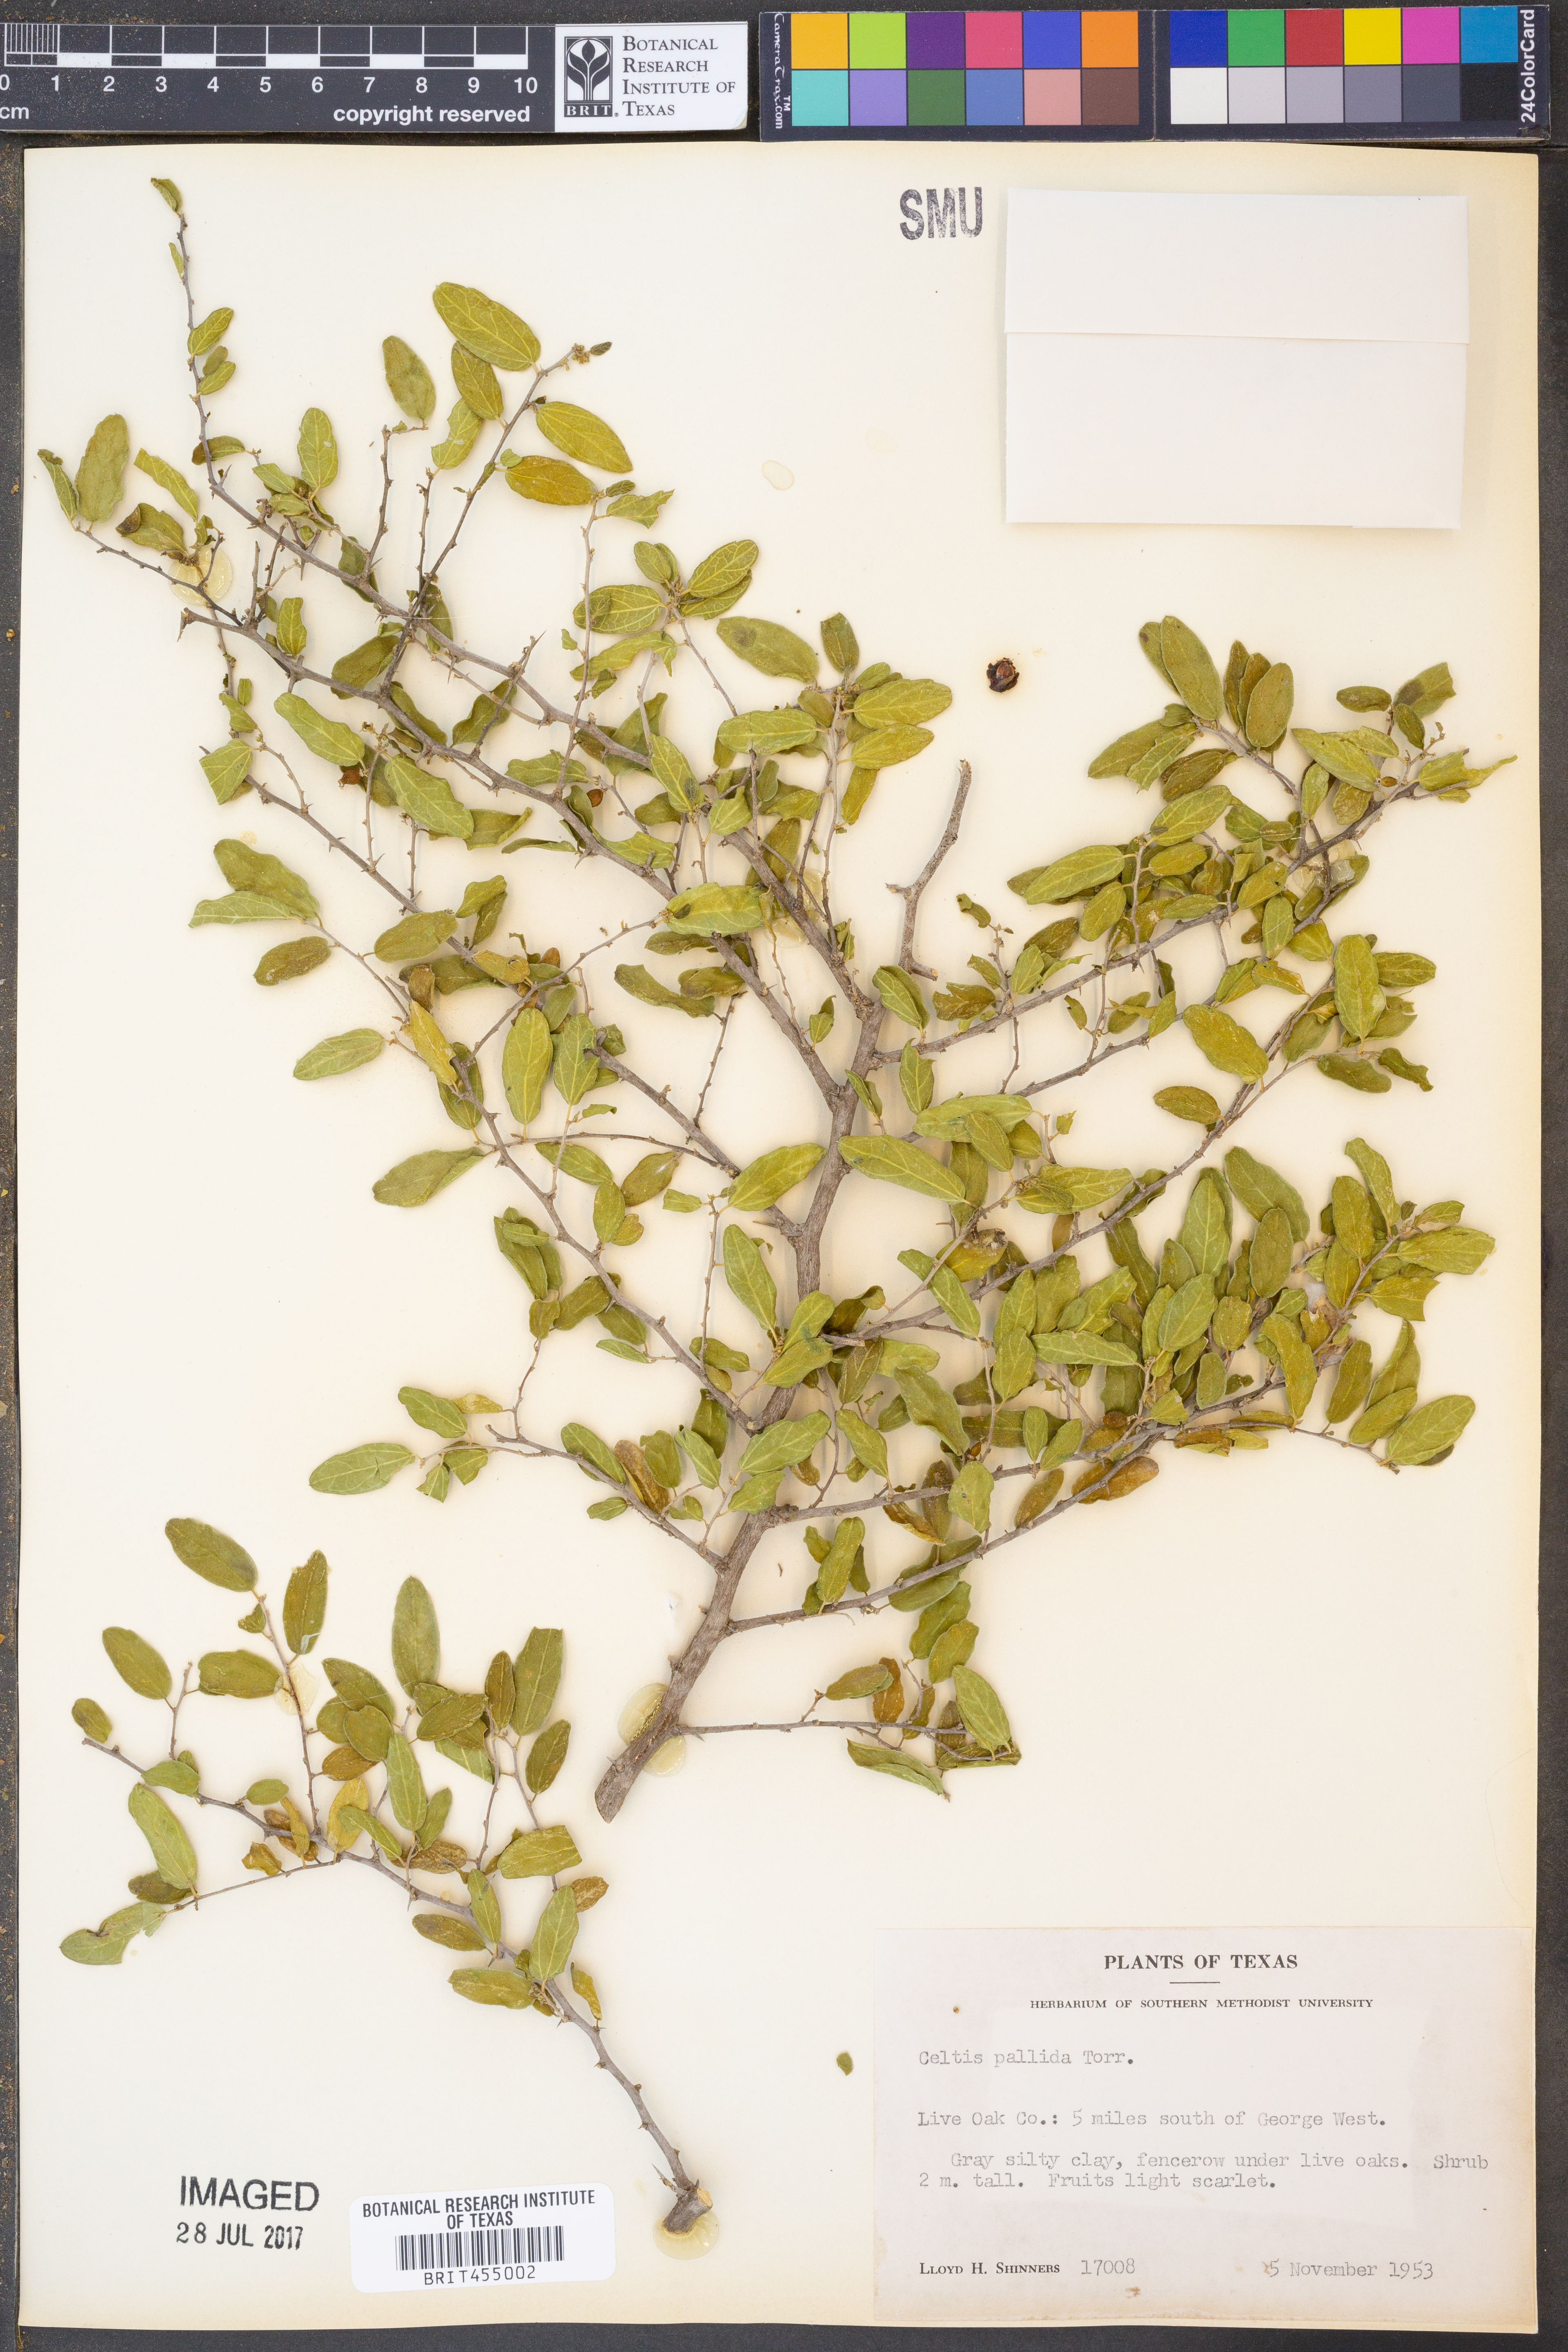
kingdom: Plantae
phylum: Tracheophyta
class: Magnoliopsida
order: Rosales
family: Cannabaceae
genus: Celtis
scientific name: Celtis pallida
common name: Desert hackberry
